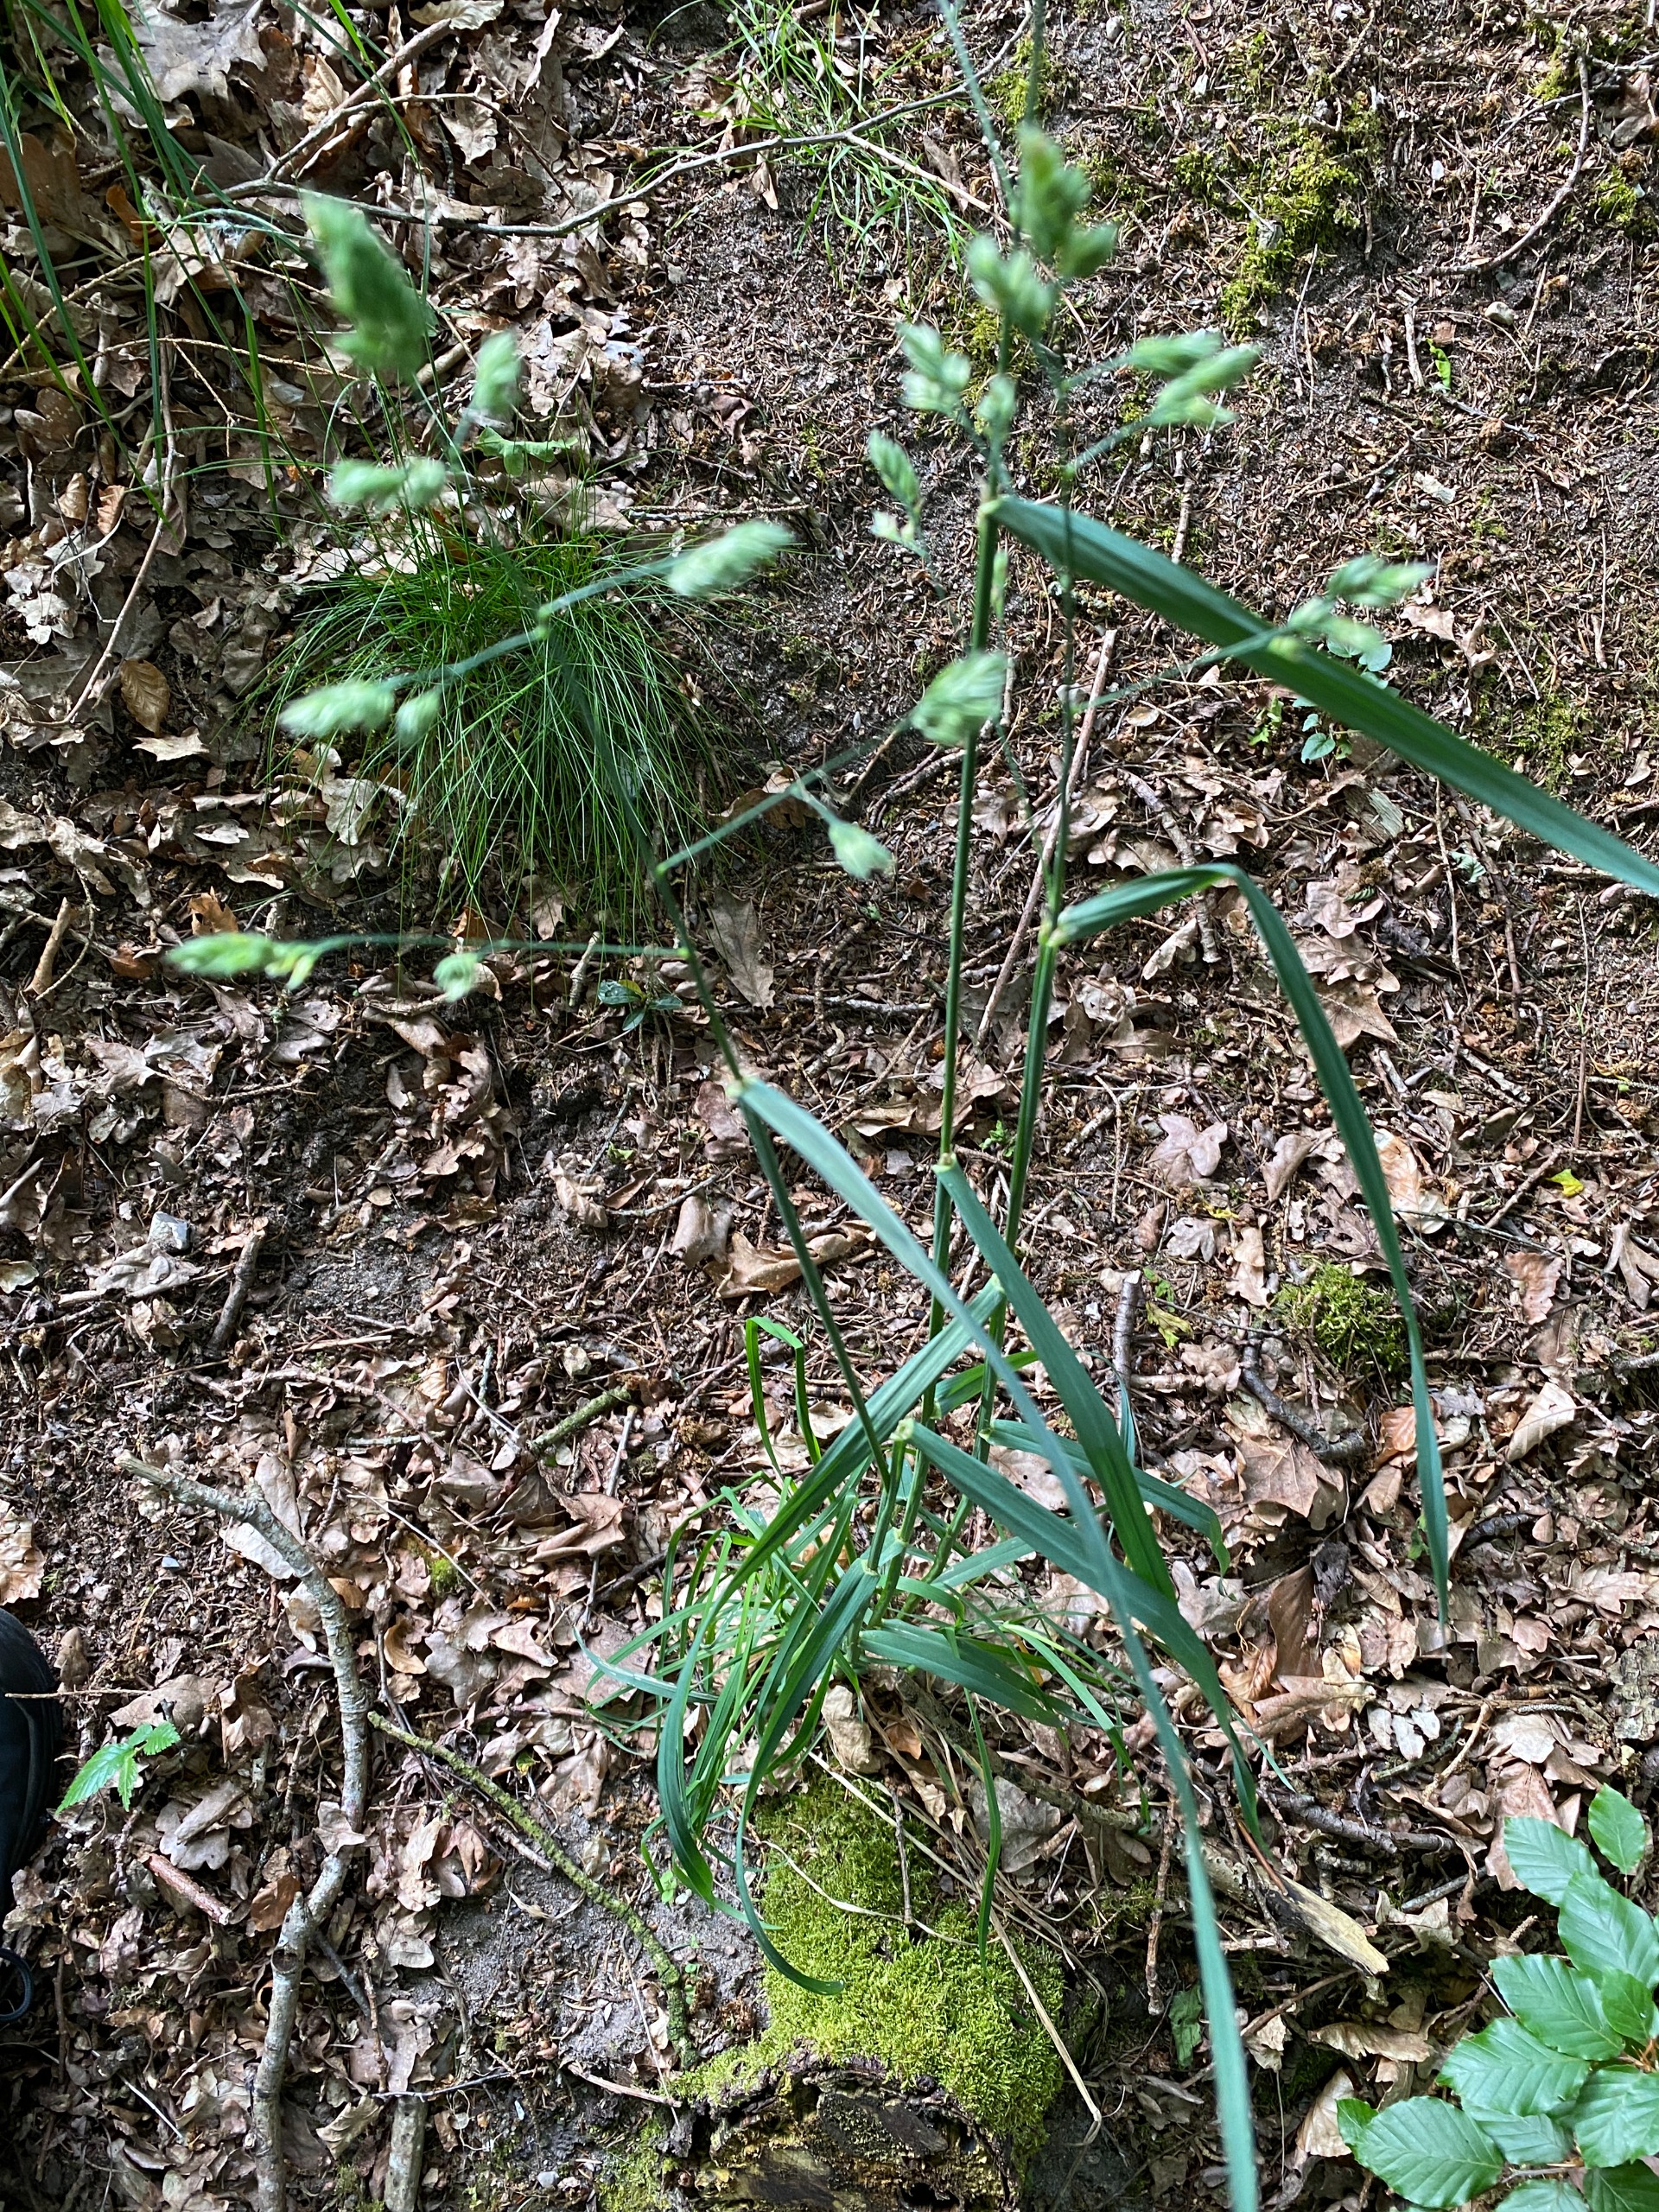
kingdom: Plantae
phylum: Tracheophyta
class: Liliopsida
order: Poales
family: Poaceae
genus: Dactylis
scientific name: Dactylis glomerata
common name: Almindelig hundegræs
